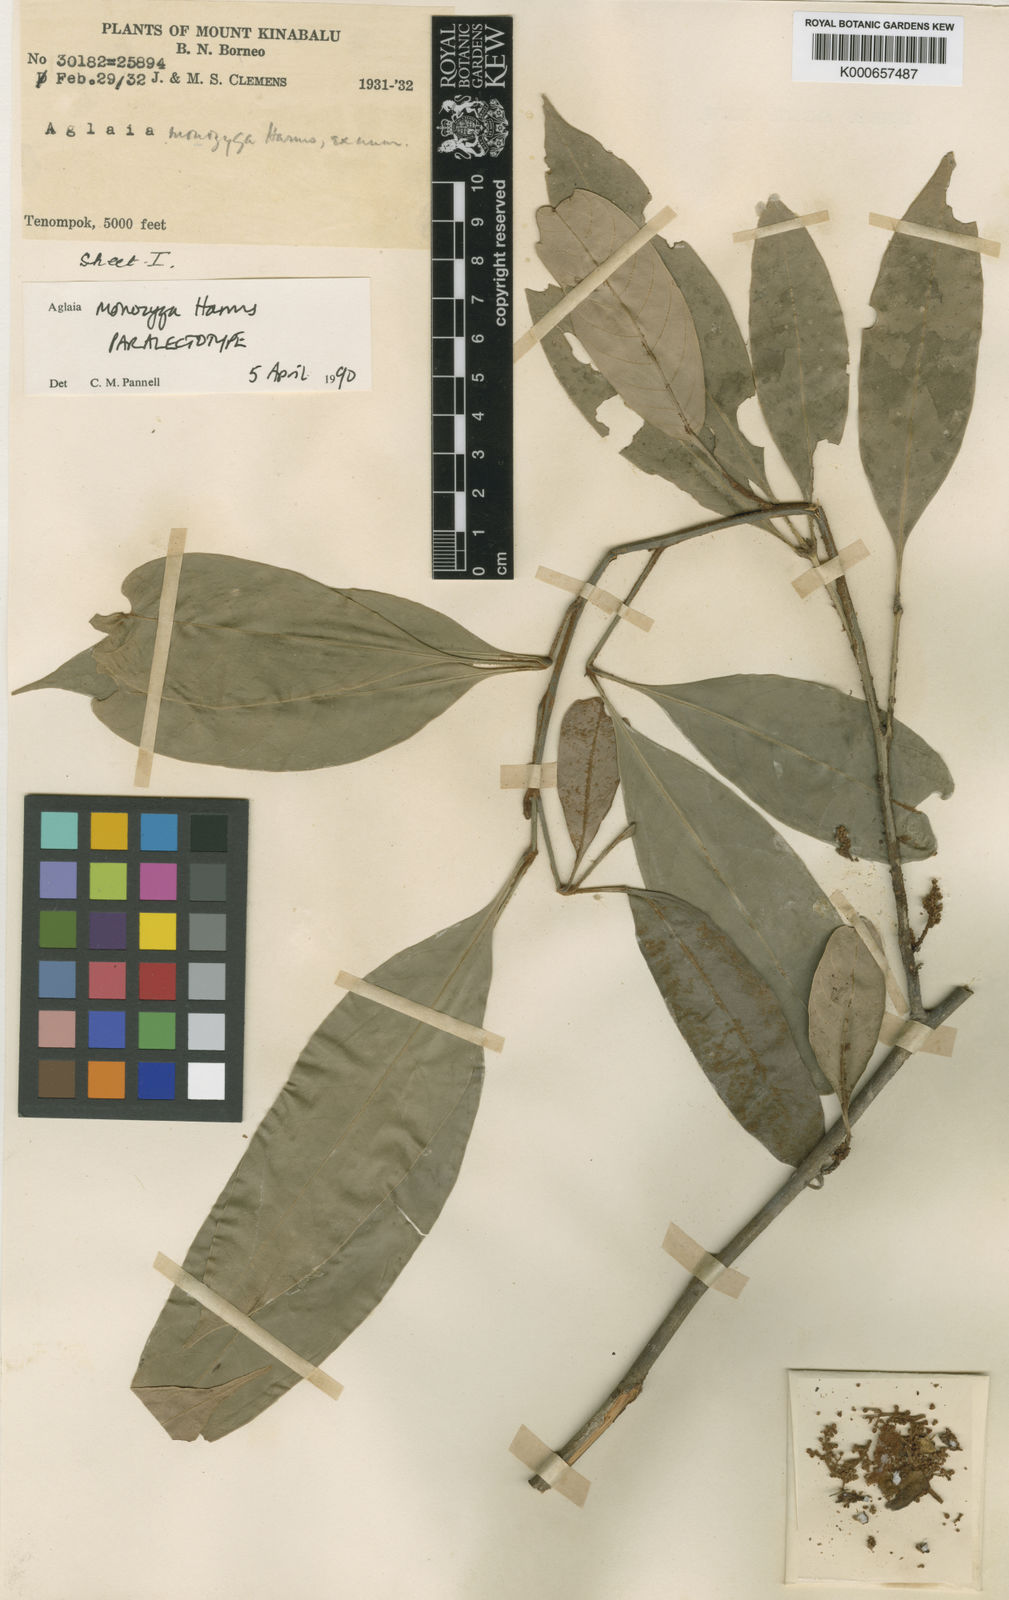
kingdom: Plantae
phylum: Tracheophyta
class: Magnoliopsida
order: Sapindales
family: Meliaceae
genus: Aglaia
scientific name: Aglaia monozyga
